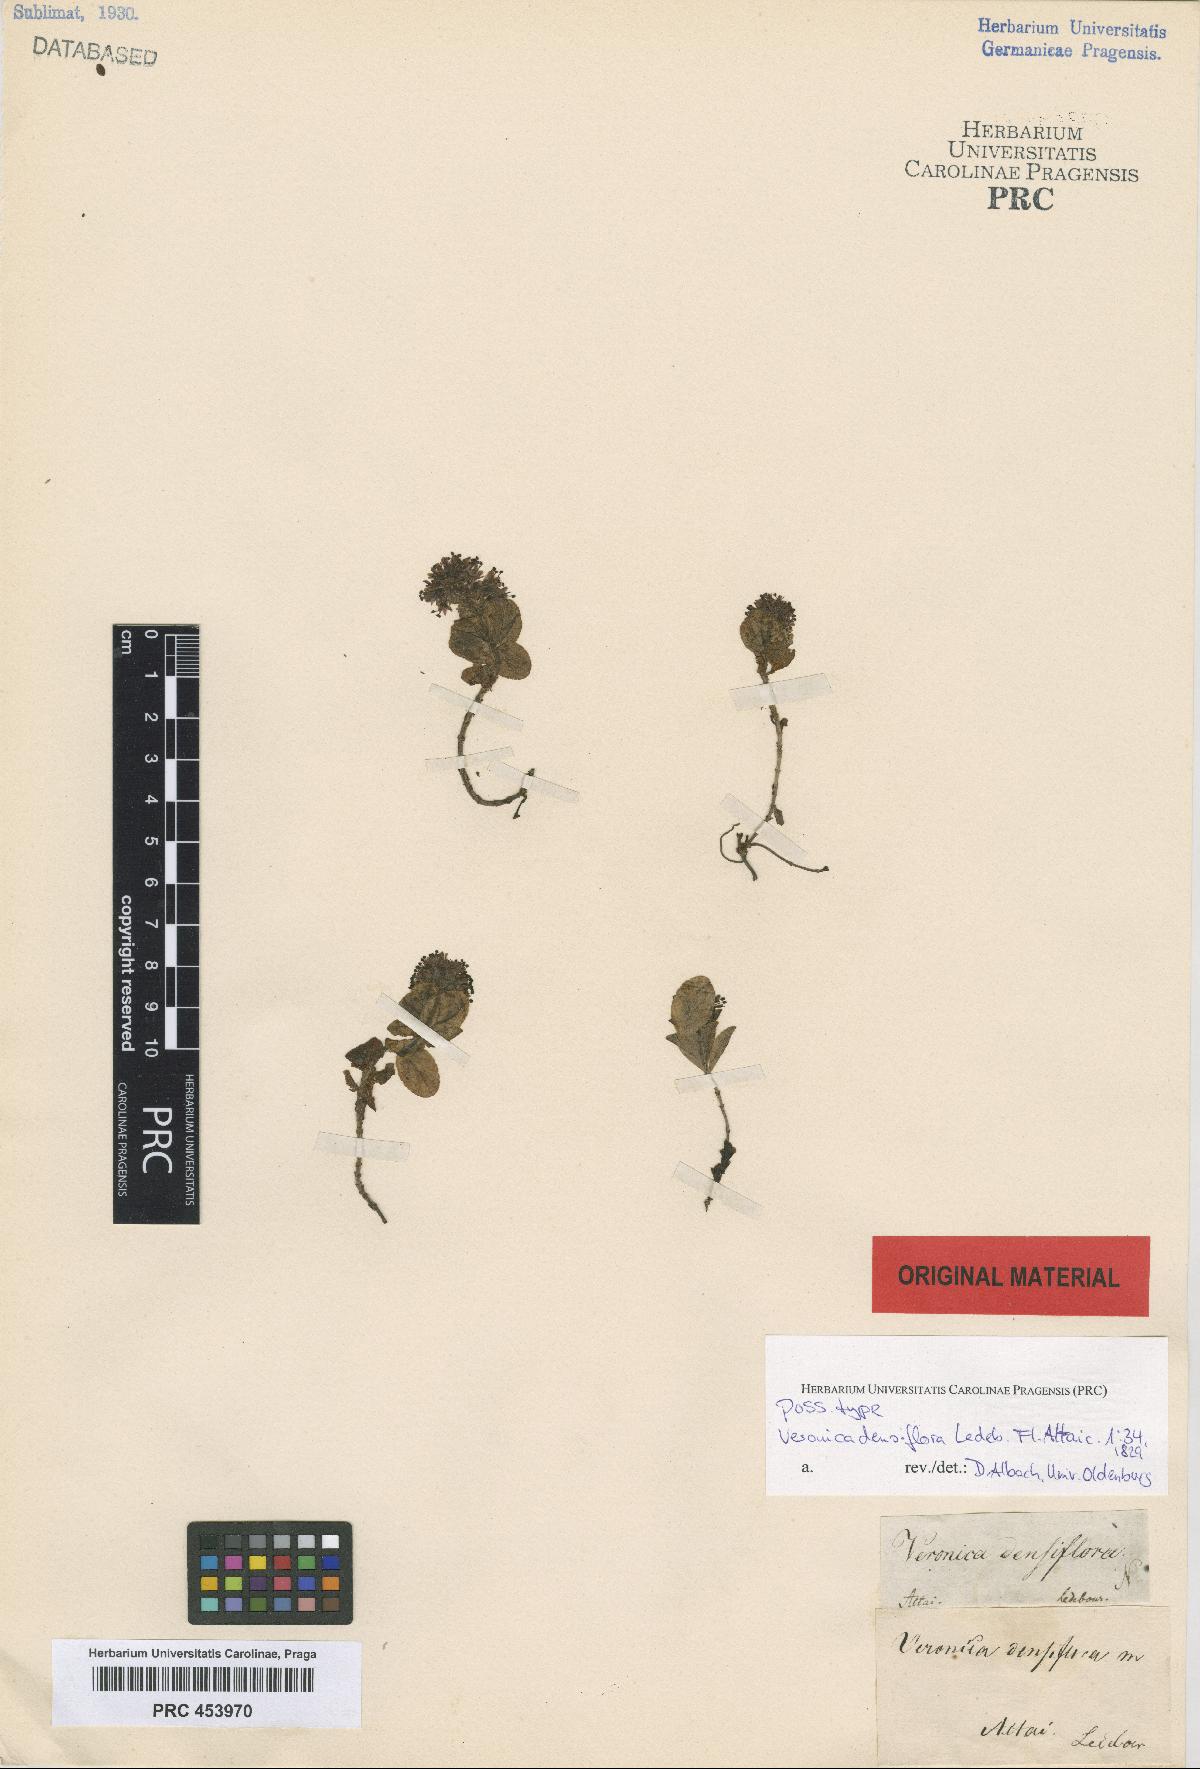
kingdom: Plantae
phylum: Tracheophyta
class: Magnoliopsida
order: Lamiales
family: Plantaginaceae
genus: Veronica
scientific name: Veronica densiflora
